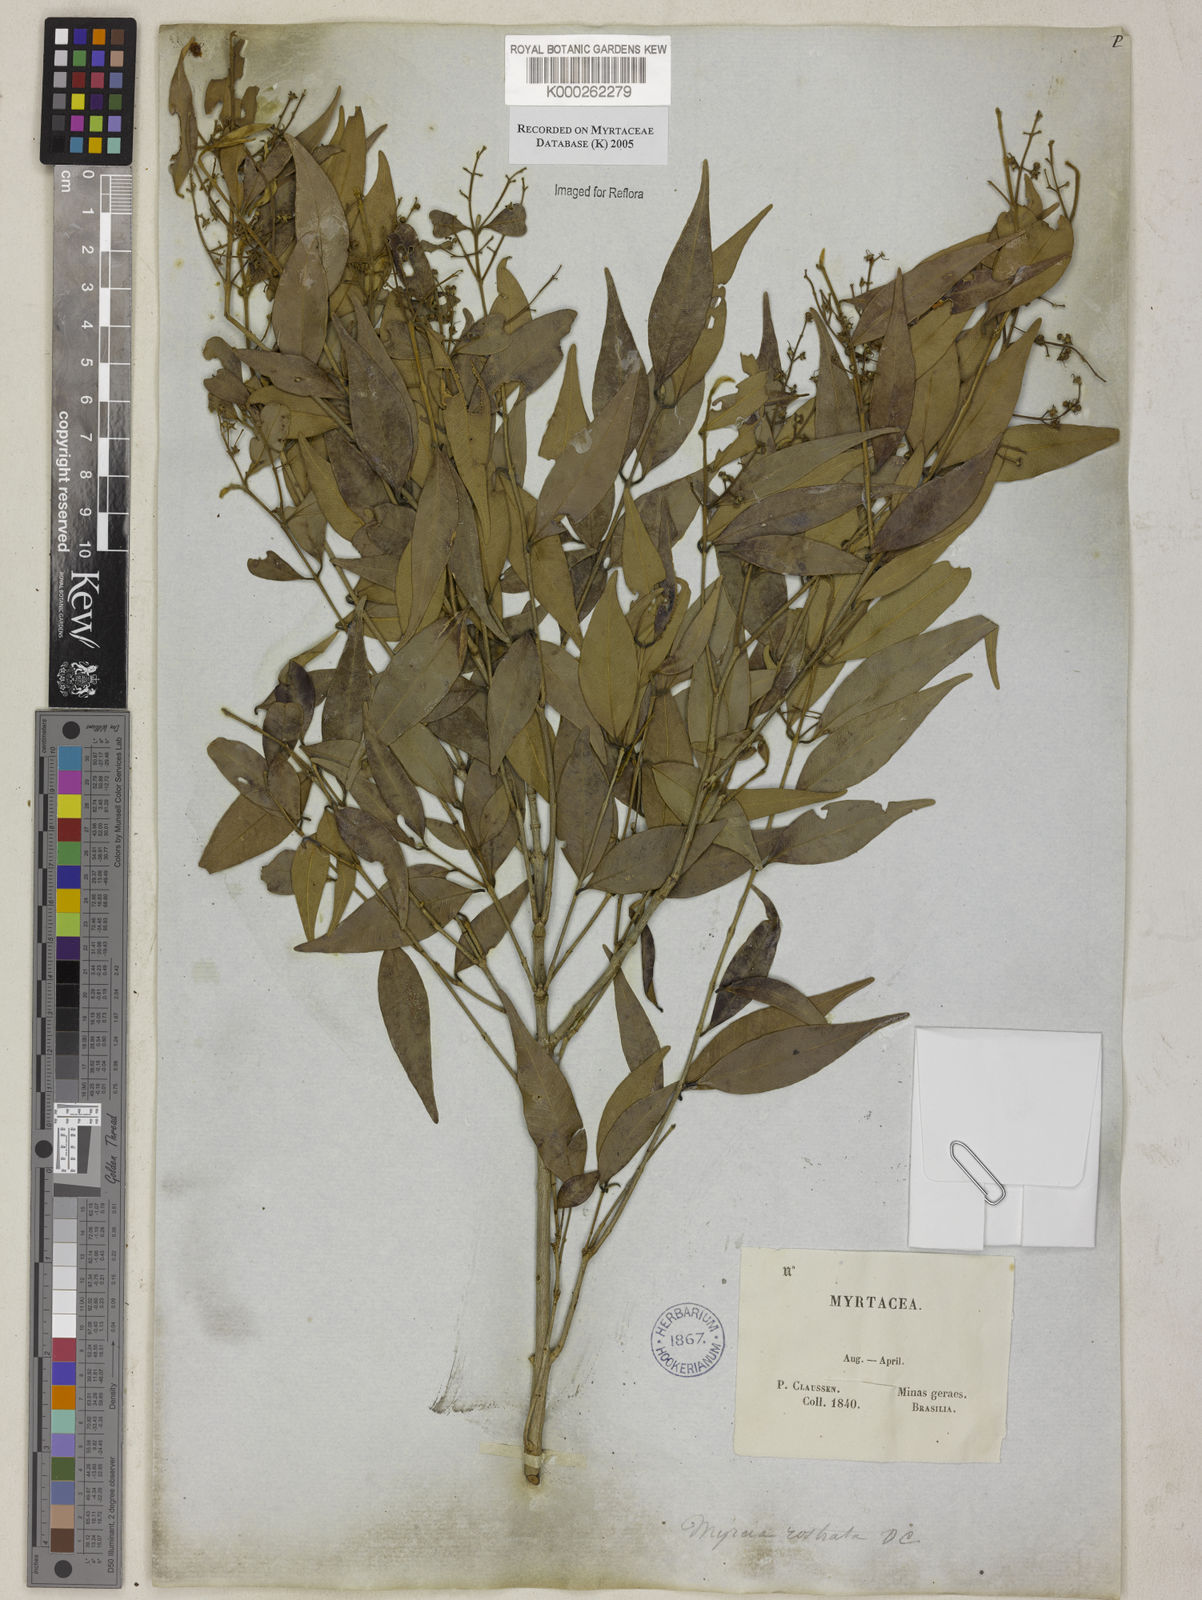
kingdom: Plantae
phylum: Tracheophyta
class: Magnoliopsida
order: Myrtales
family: Myrtaceae
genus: Myrcia
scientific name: Myrcia splendens
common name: Surinam cherry
